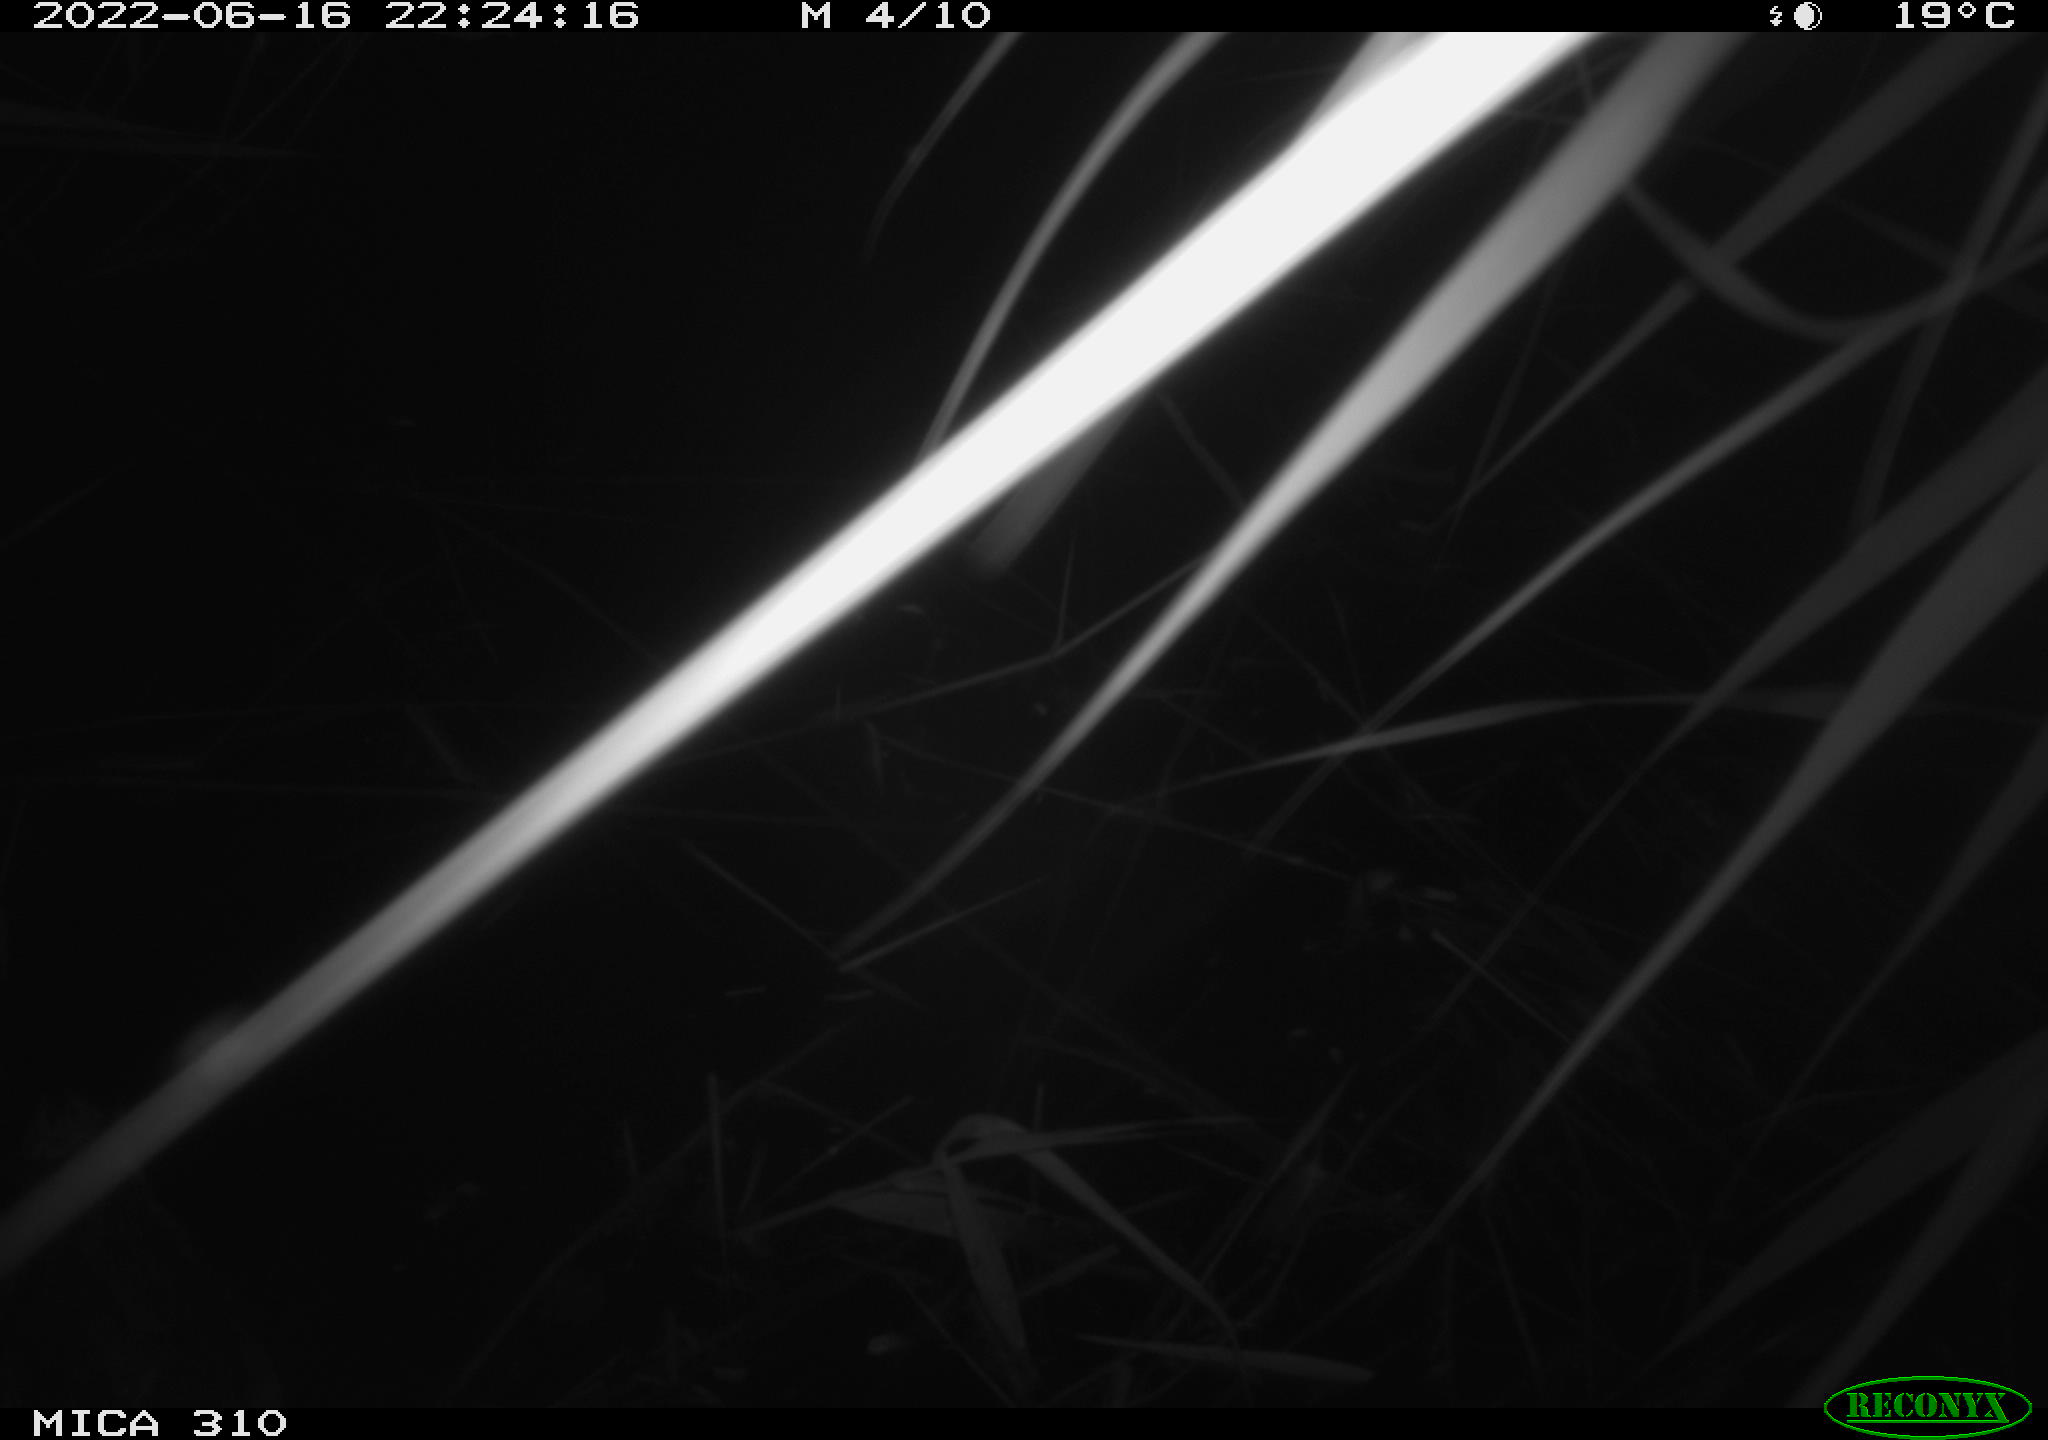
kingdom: Animalia
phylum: Chordata
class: Aves
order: Anseriformes
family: Anatidae
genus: Anas
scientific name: Anas platyrhynchos
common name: Mallard
